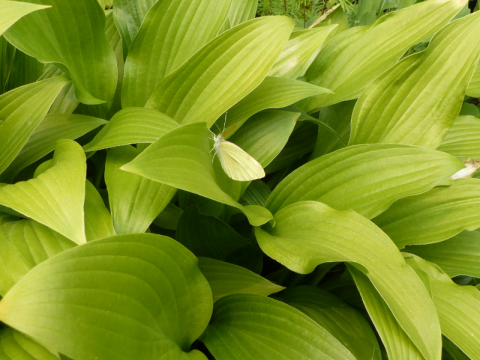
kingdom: Animalia
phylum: Arthropoda
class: Insecta
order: Lepidoptera
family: Pieridae
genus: Pieris
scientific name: Pieris oleracea
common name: Mustard White
